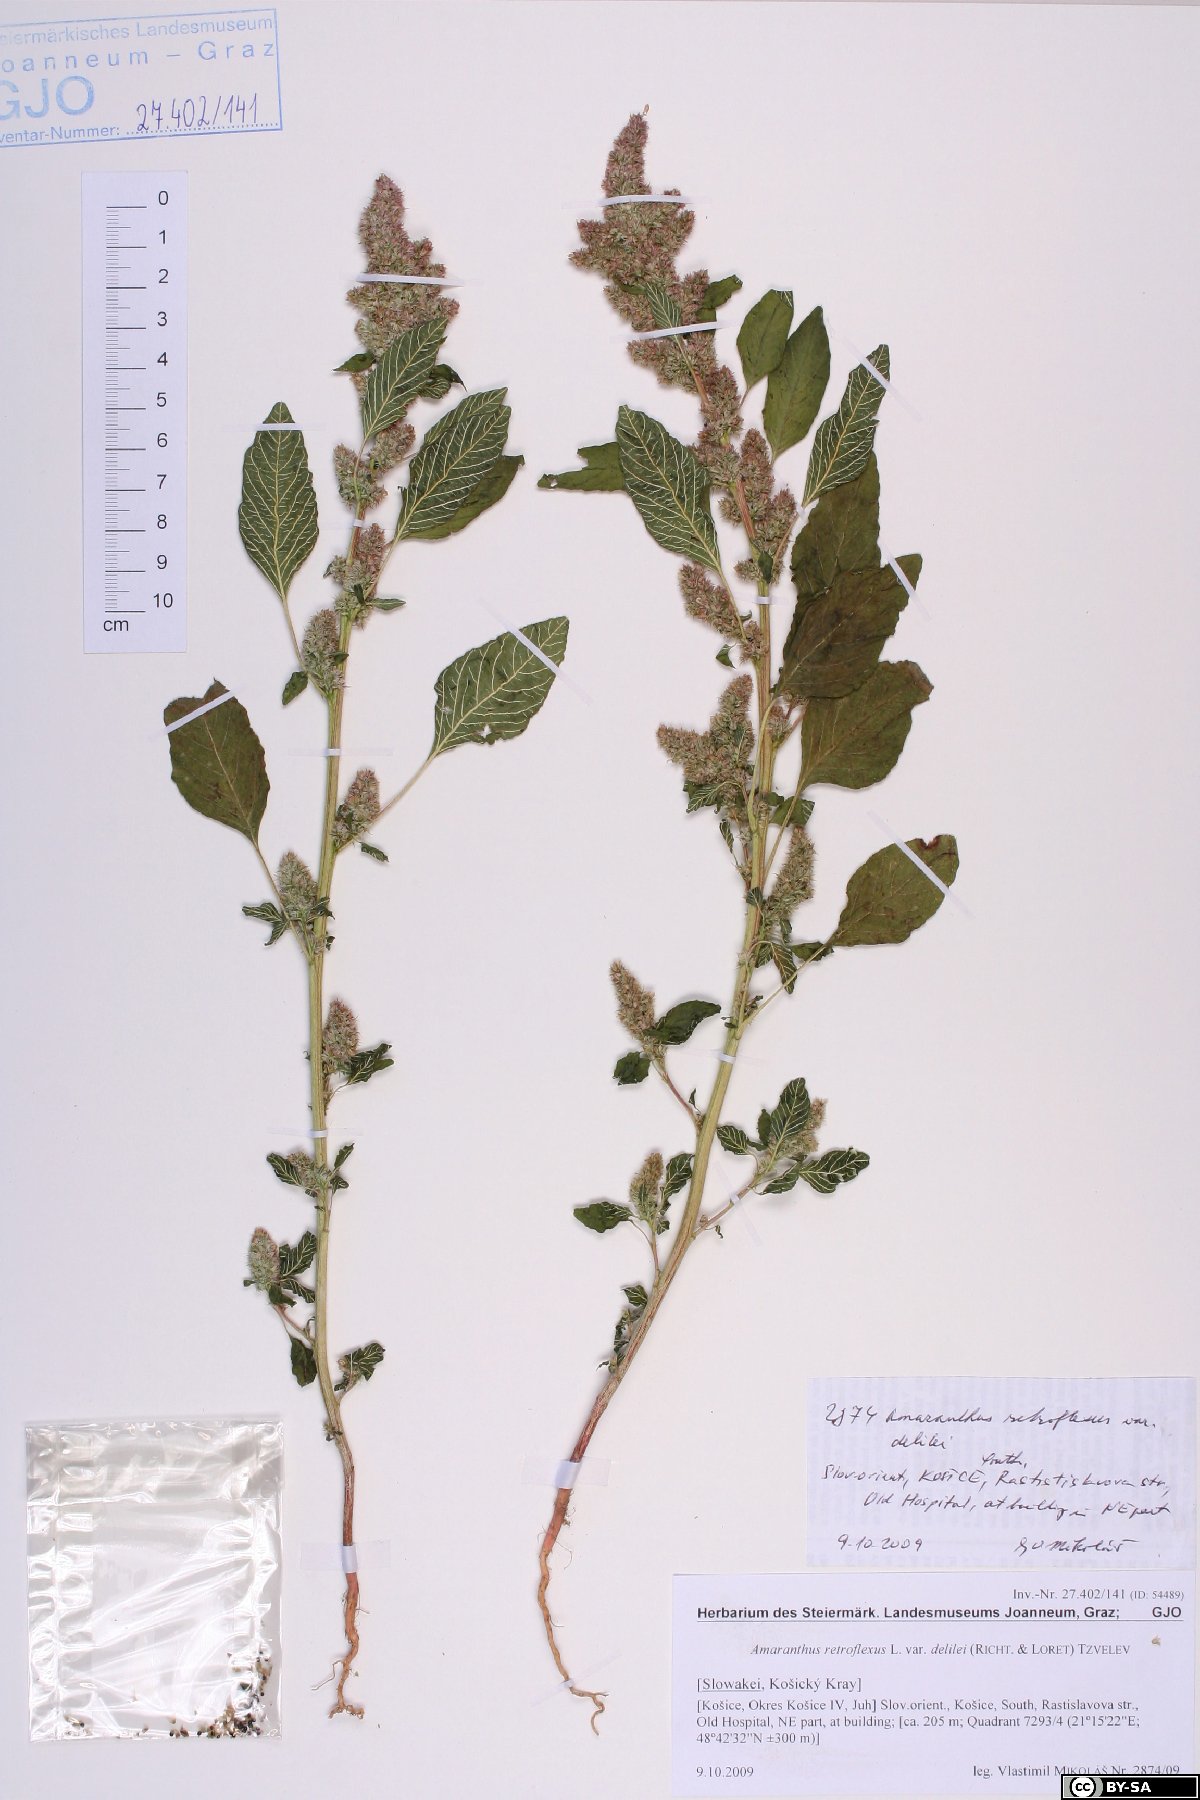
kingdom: Plantae
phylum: Tracheophyta
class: Magnoliopsida
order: Caryophyllales
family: Amaranthaceae
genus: Amaranthus
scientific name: Amaranthus retroflexus
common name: Redroot amaranth
